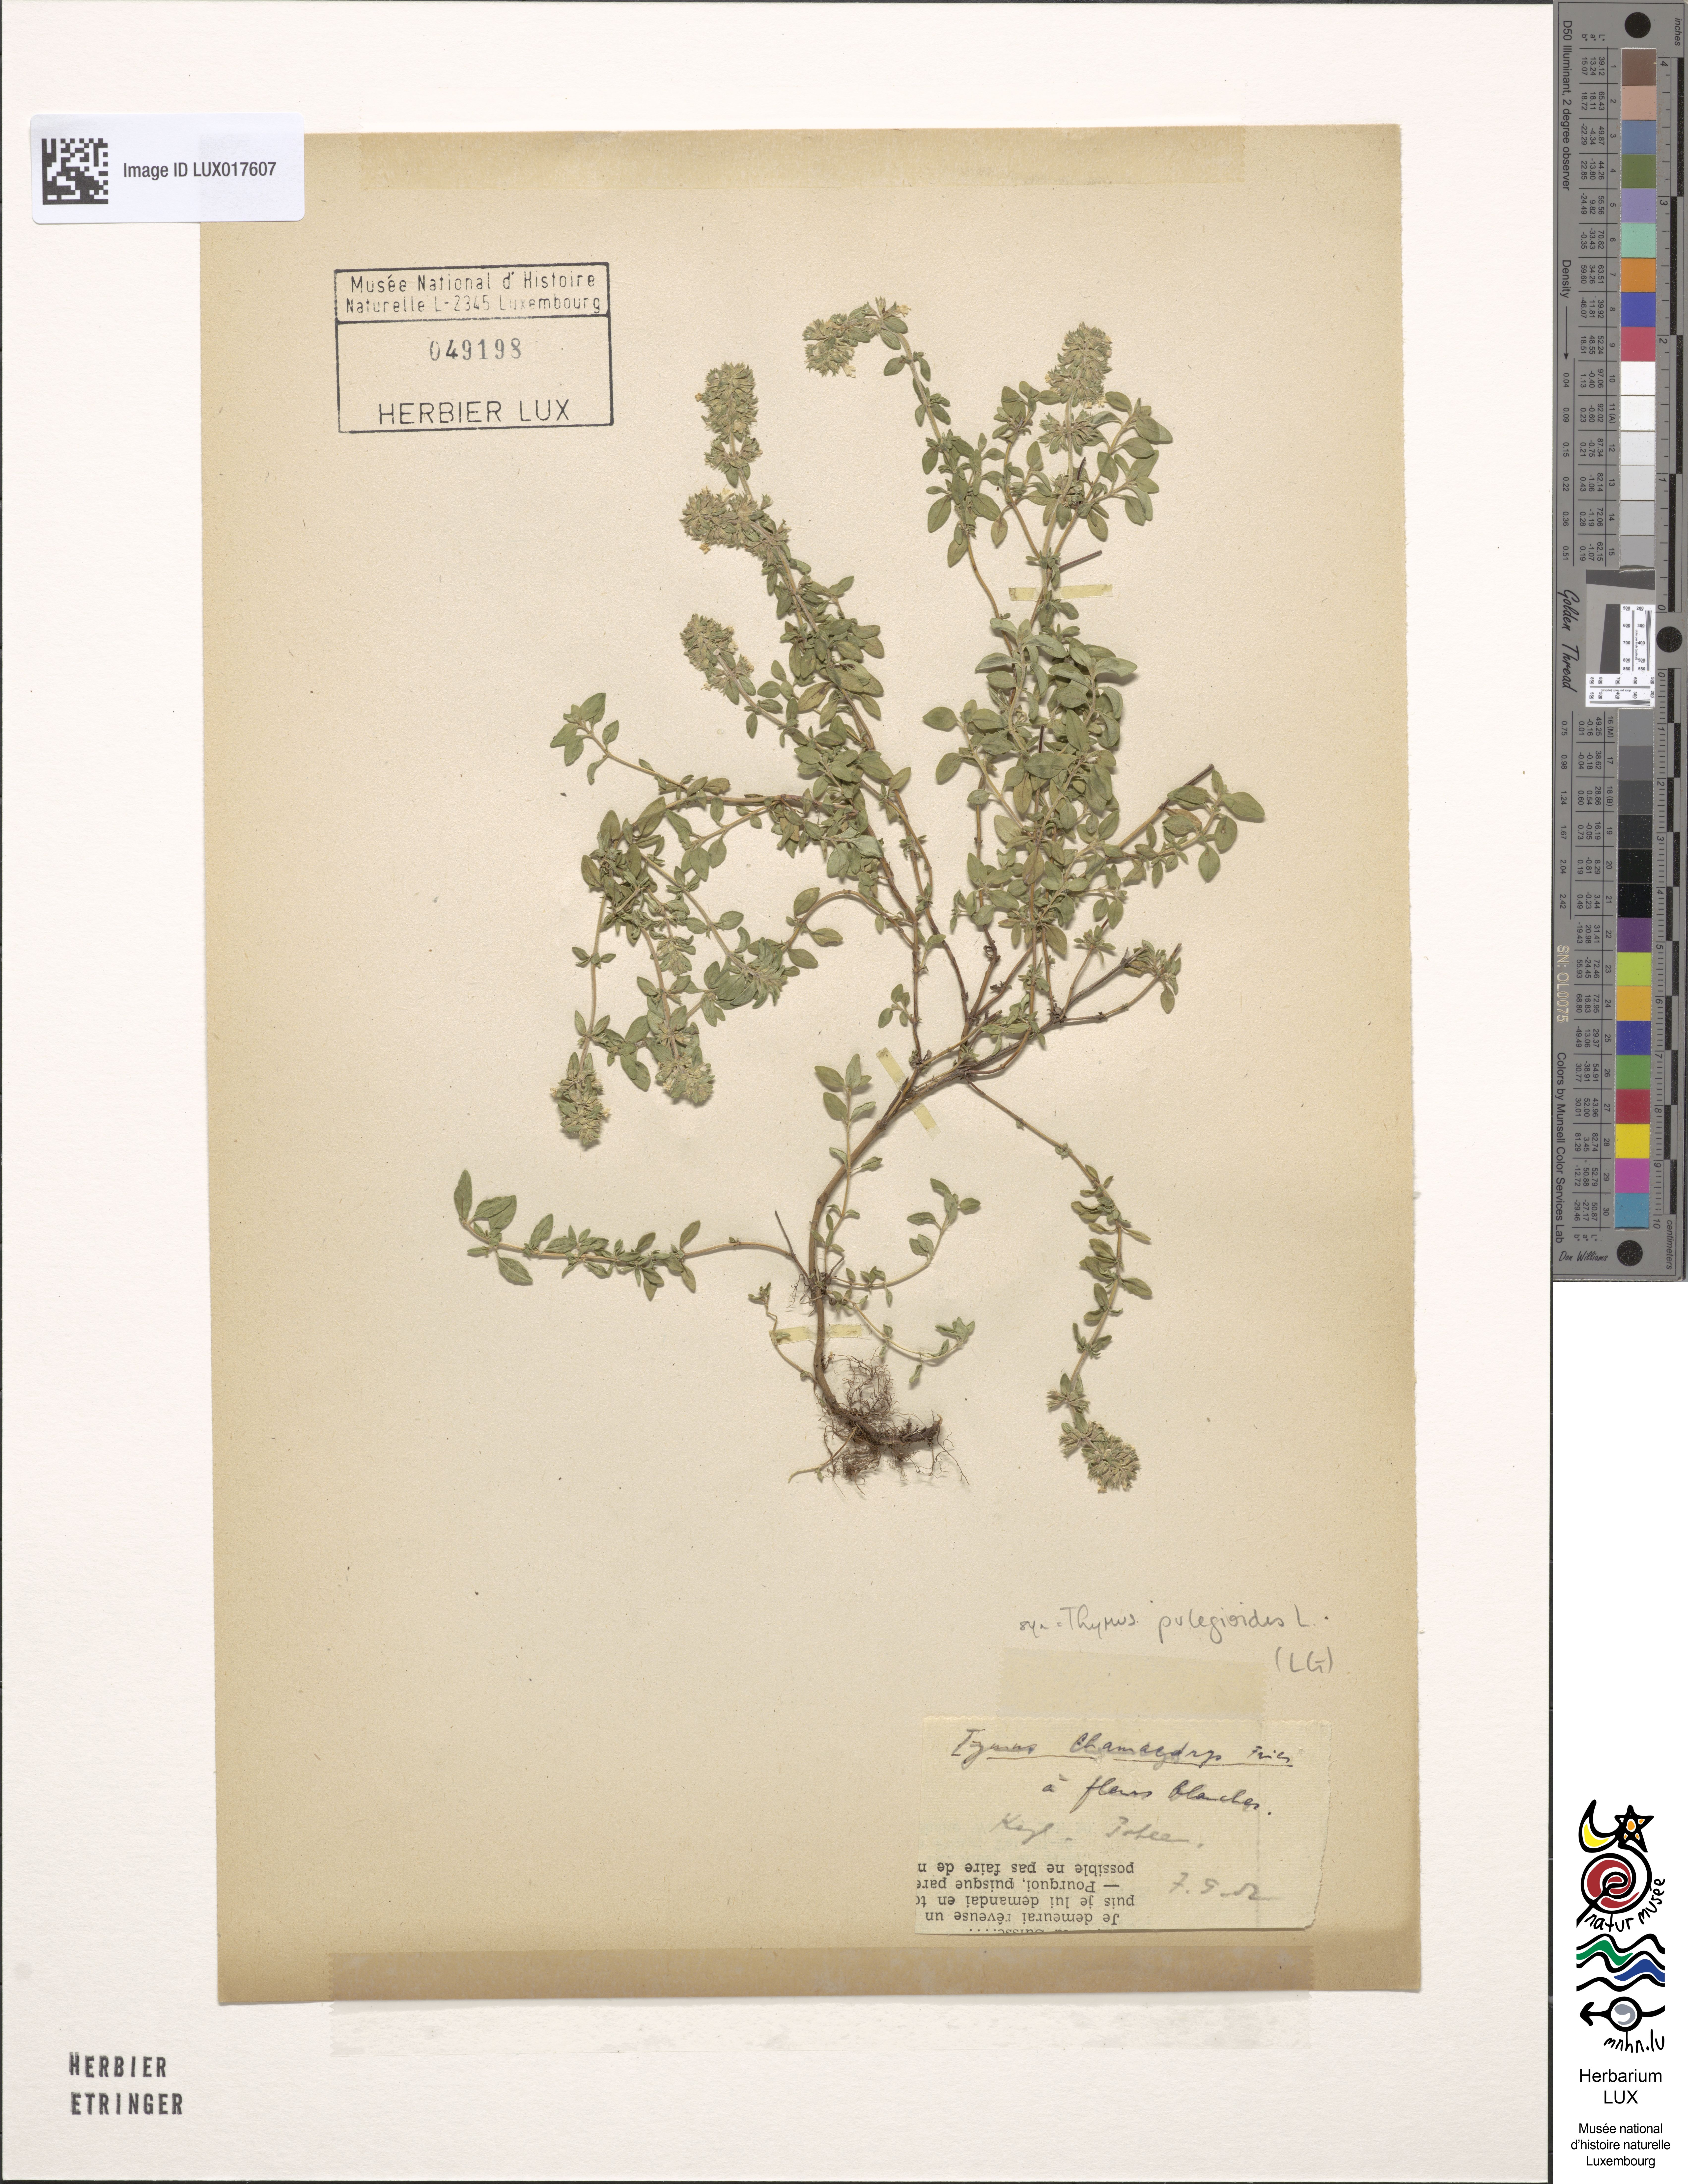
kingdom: Plantae
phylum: Tracheophyta
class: Magnoliopsida
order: Lamiales
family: Lamiaceae
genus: Thymus
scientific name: Thymus pulegioides
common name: Large thyme
